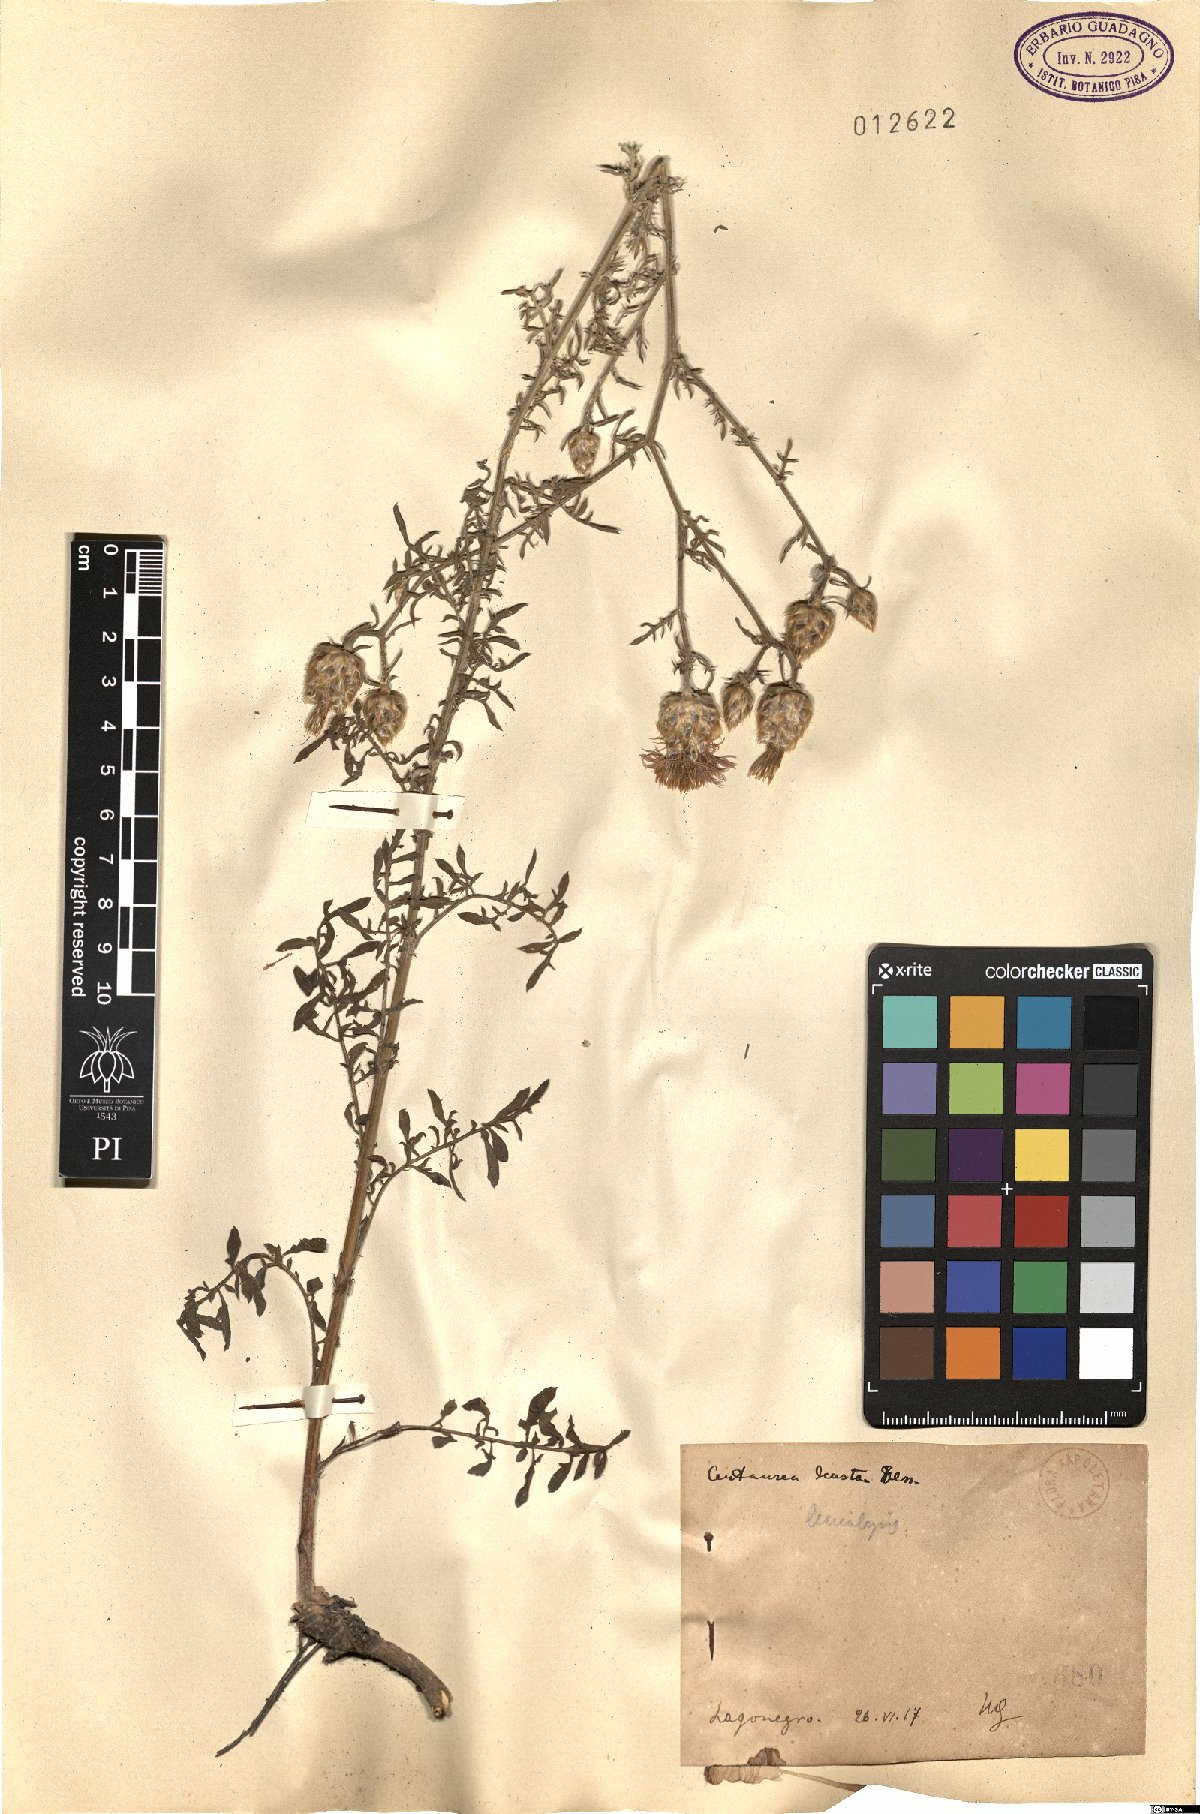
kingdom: Plantae
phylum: Tracheophyta
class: Magnoliopsida
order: Asterales
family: Asteraceae
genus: Centaurea
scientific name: Centaurea deusta
